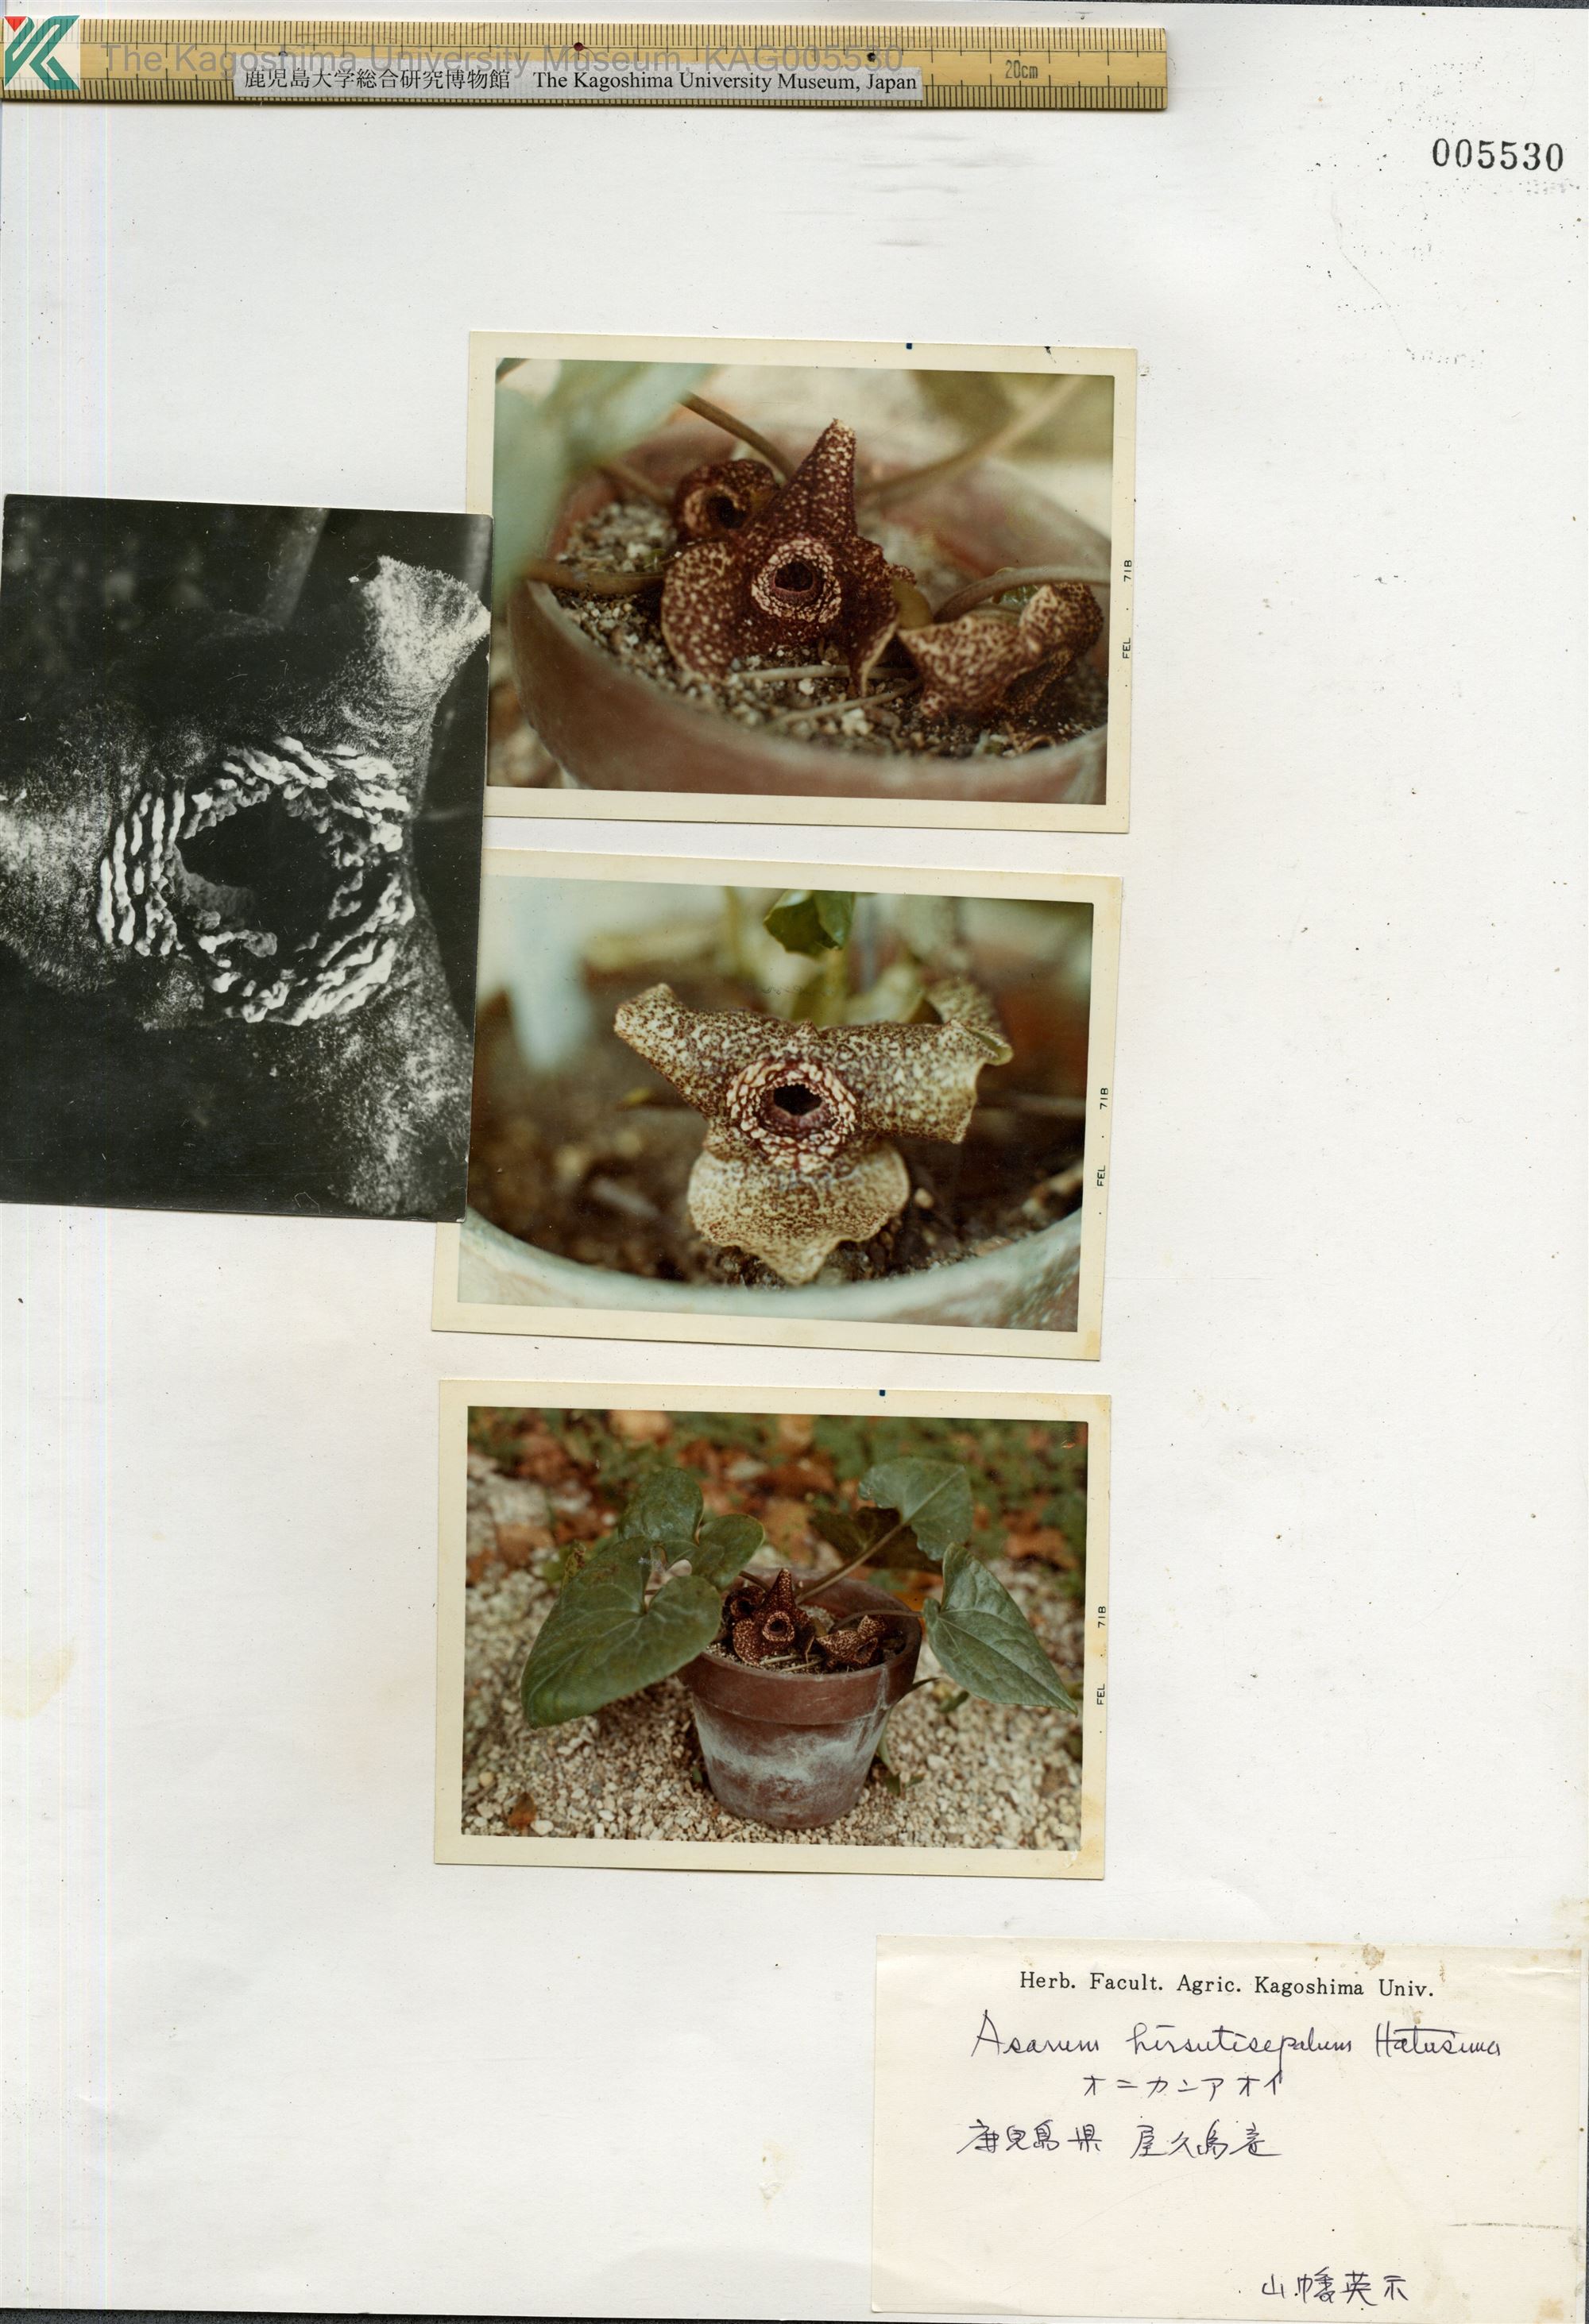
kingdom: Plantae
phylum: Tracheophyta
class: Magnoliopsida
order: Piperales
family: Aristolochiaceae
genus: Asarum
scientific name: Asarum yakusimense
